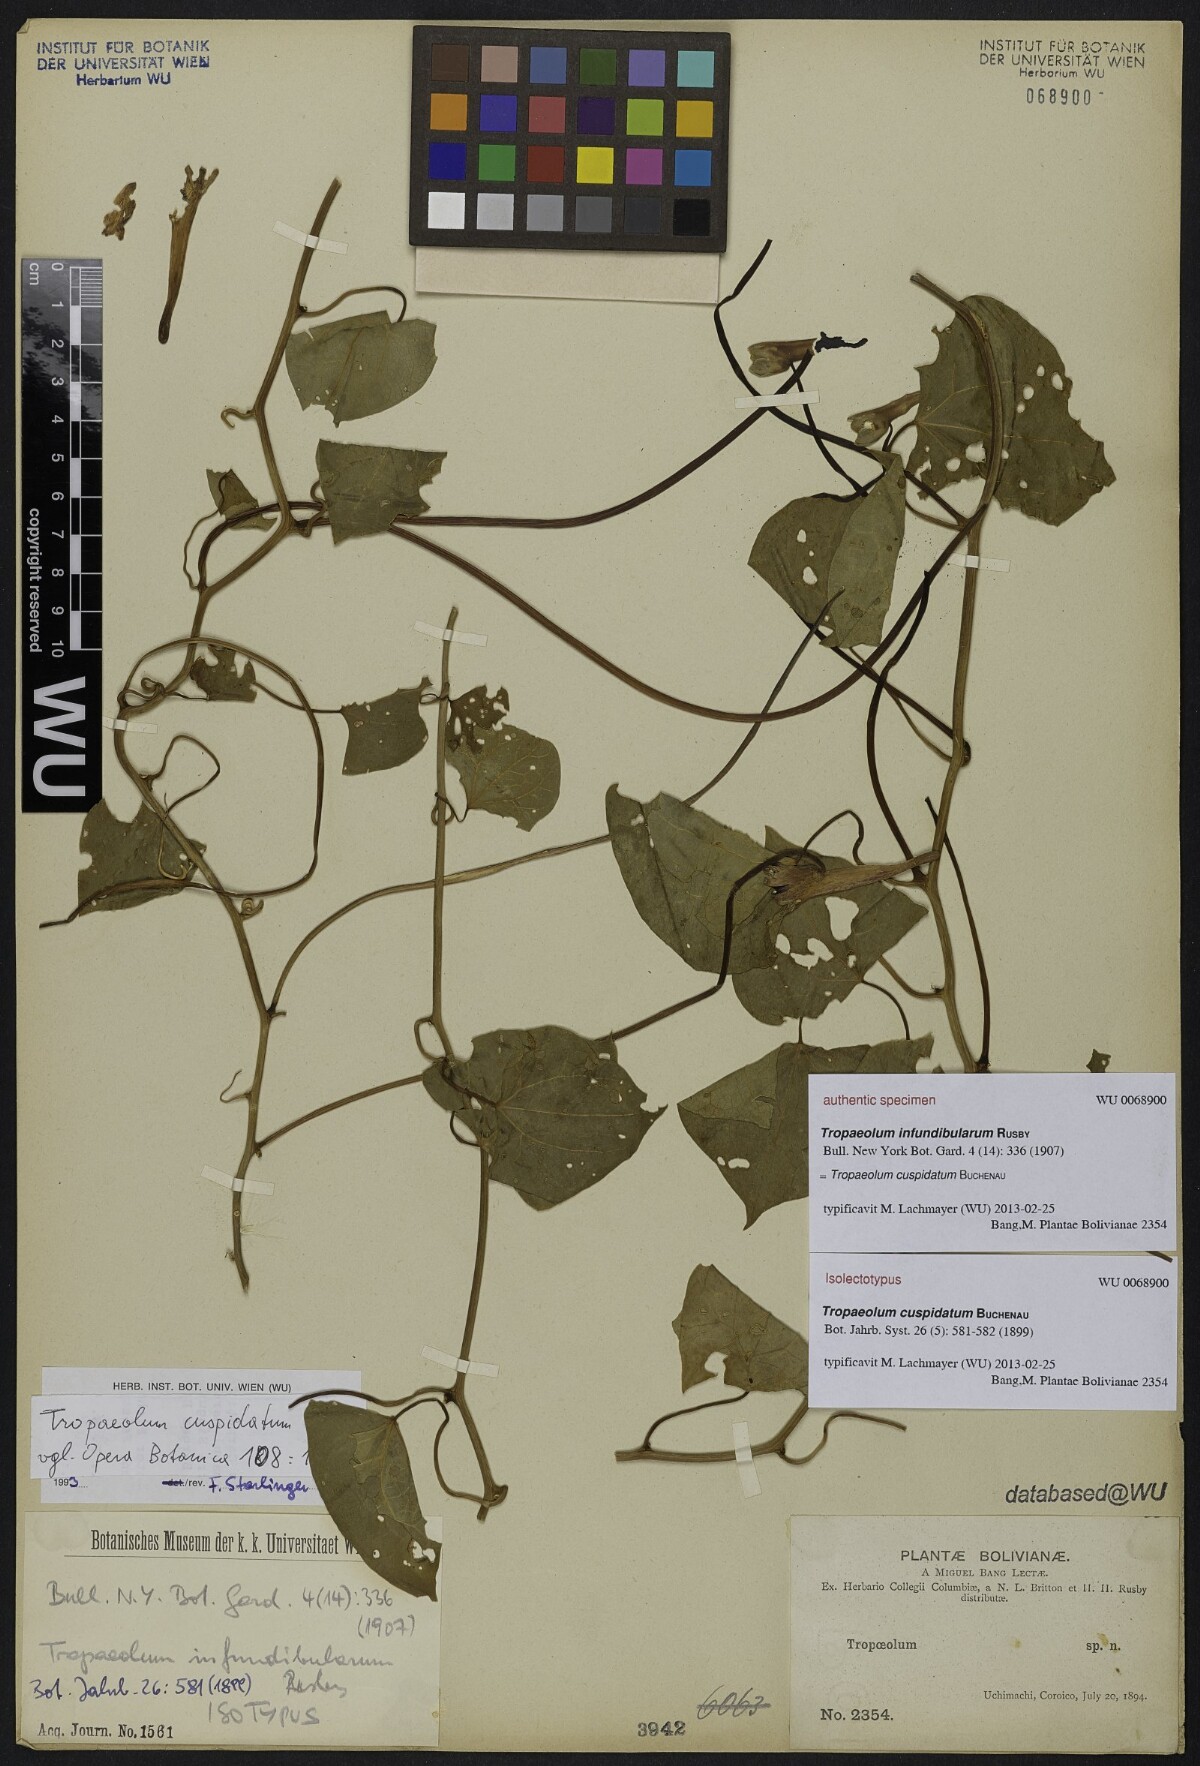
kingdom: Plantae
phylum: Tracheophyta
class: Magnoliopsida
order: Brassicales
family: Tropaeolaceae
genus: Tropaeolum
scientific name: Tropaeolum cuspidatum
